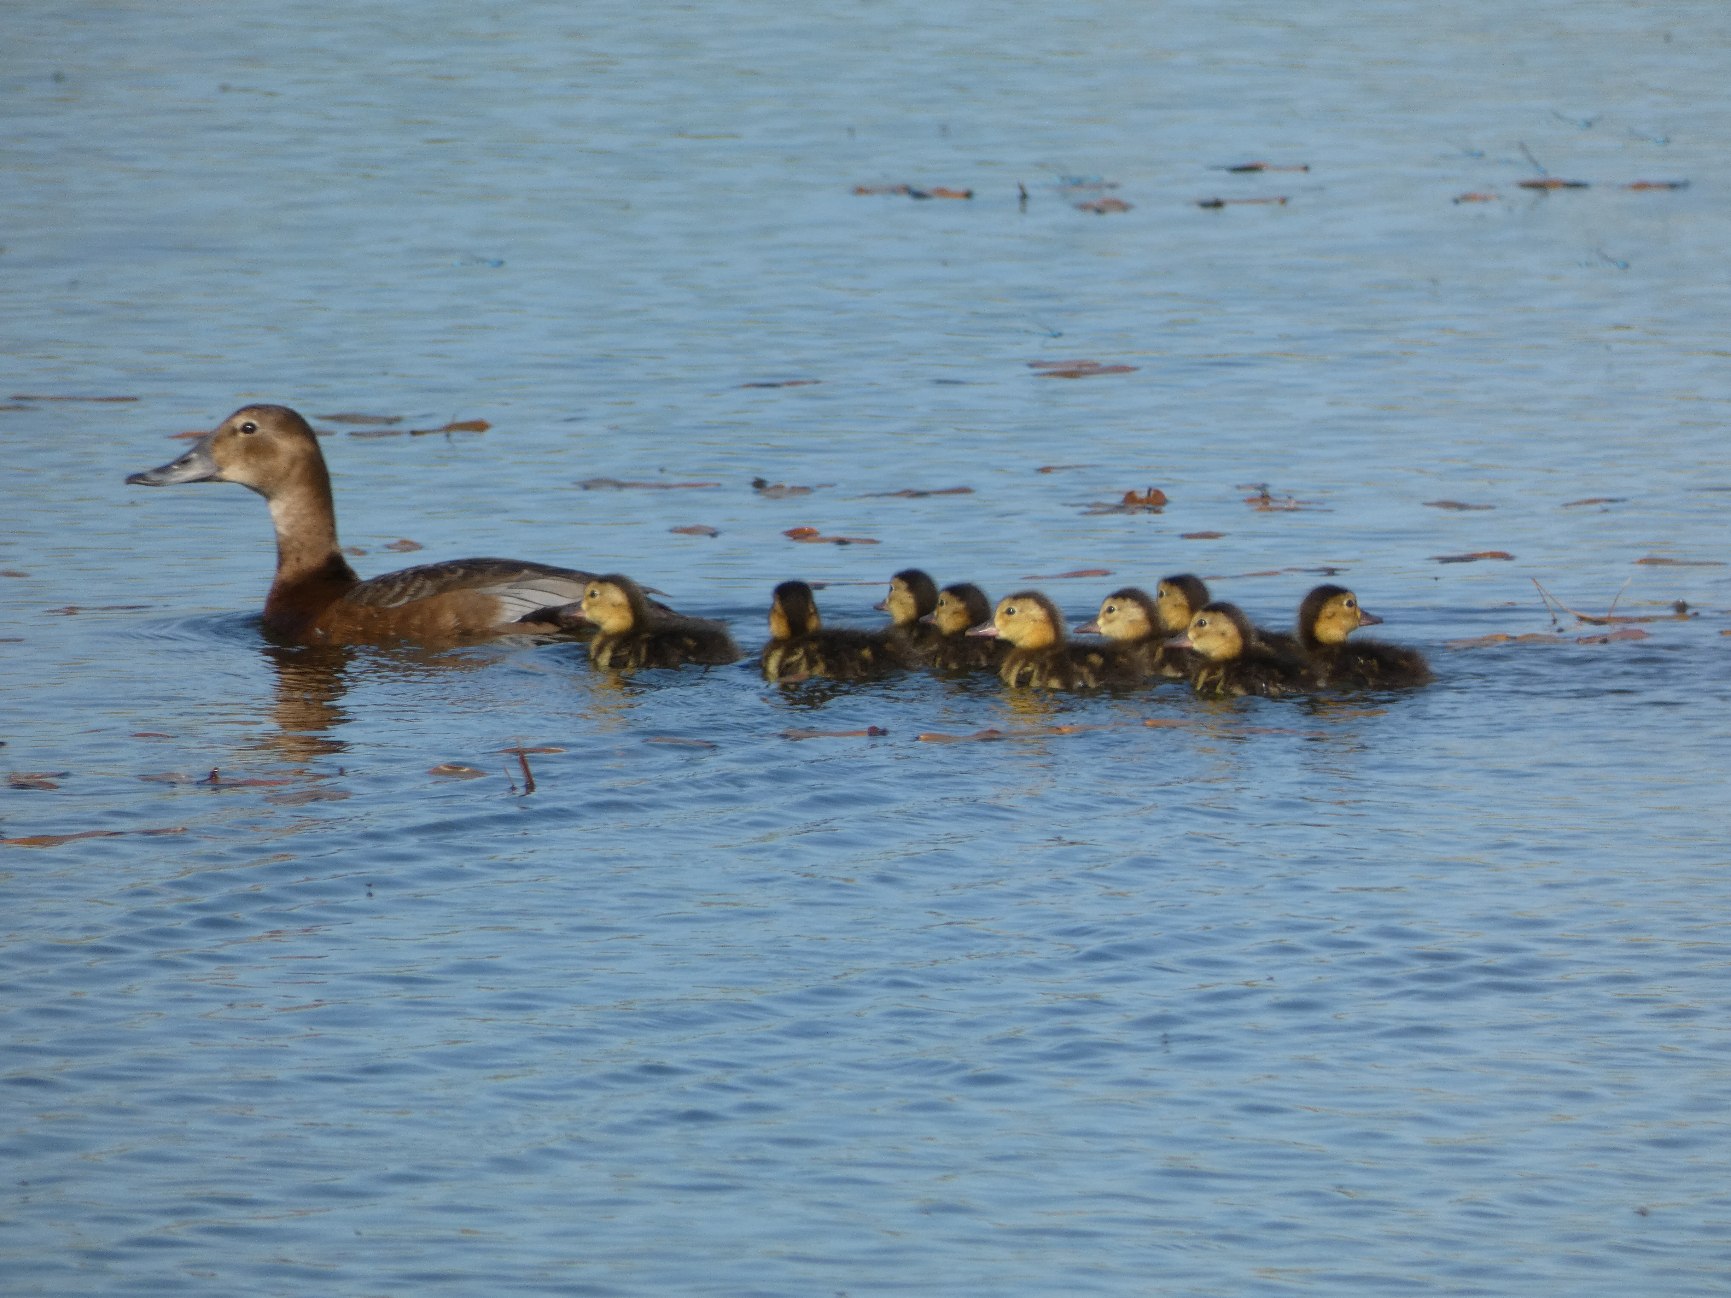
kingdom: Animalia
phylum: Chordata
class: Aves
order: Anseriformes
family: Anatidae
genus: Aythya
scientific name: Aythya ferina
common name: Taffeland
